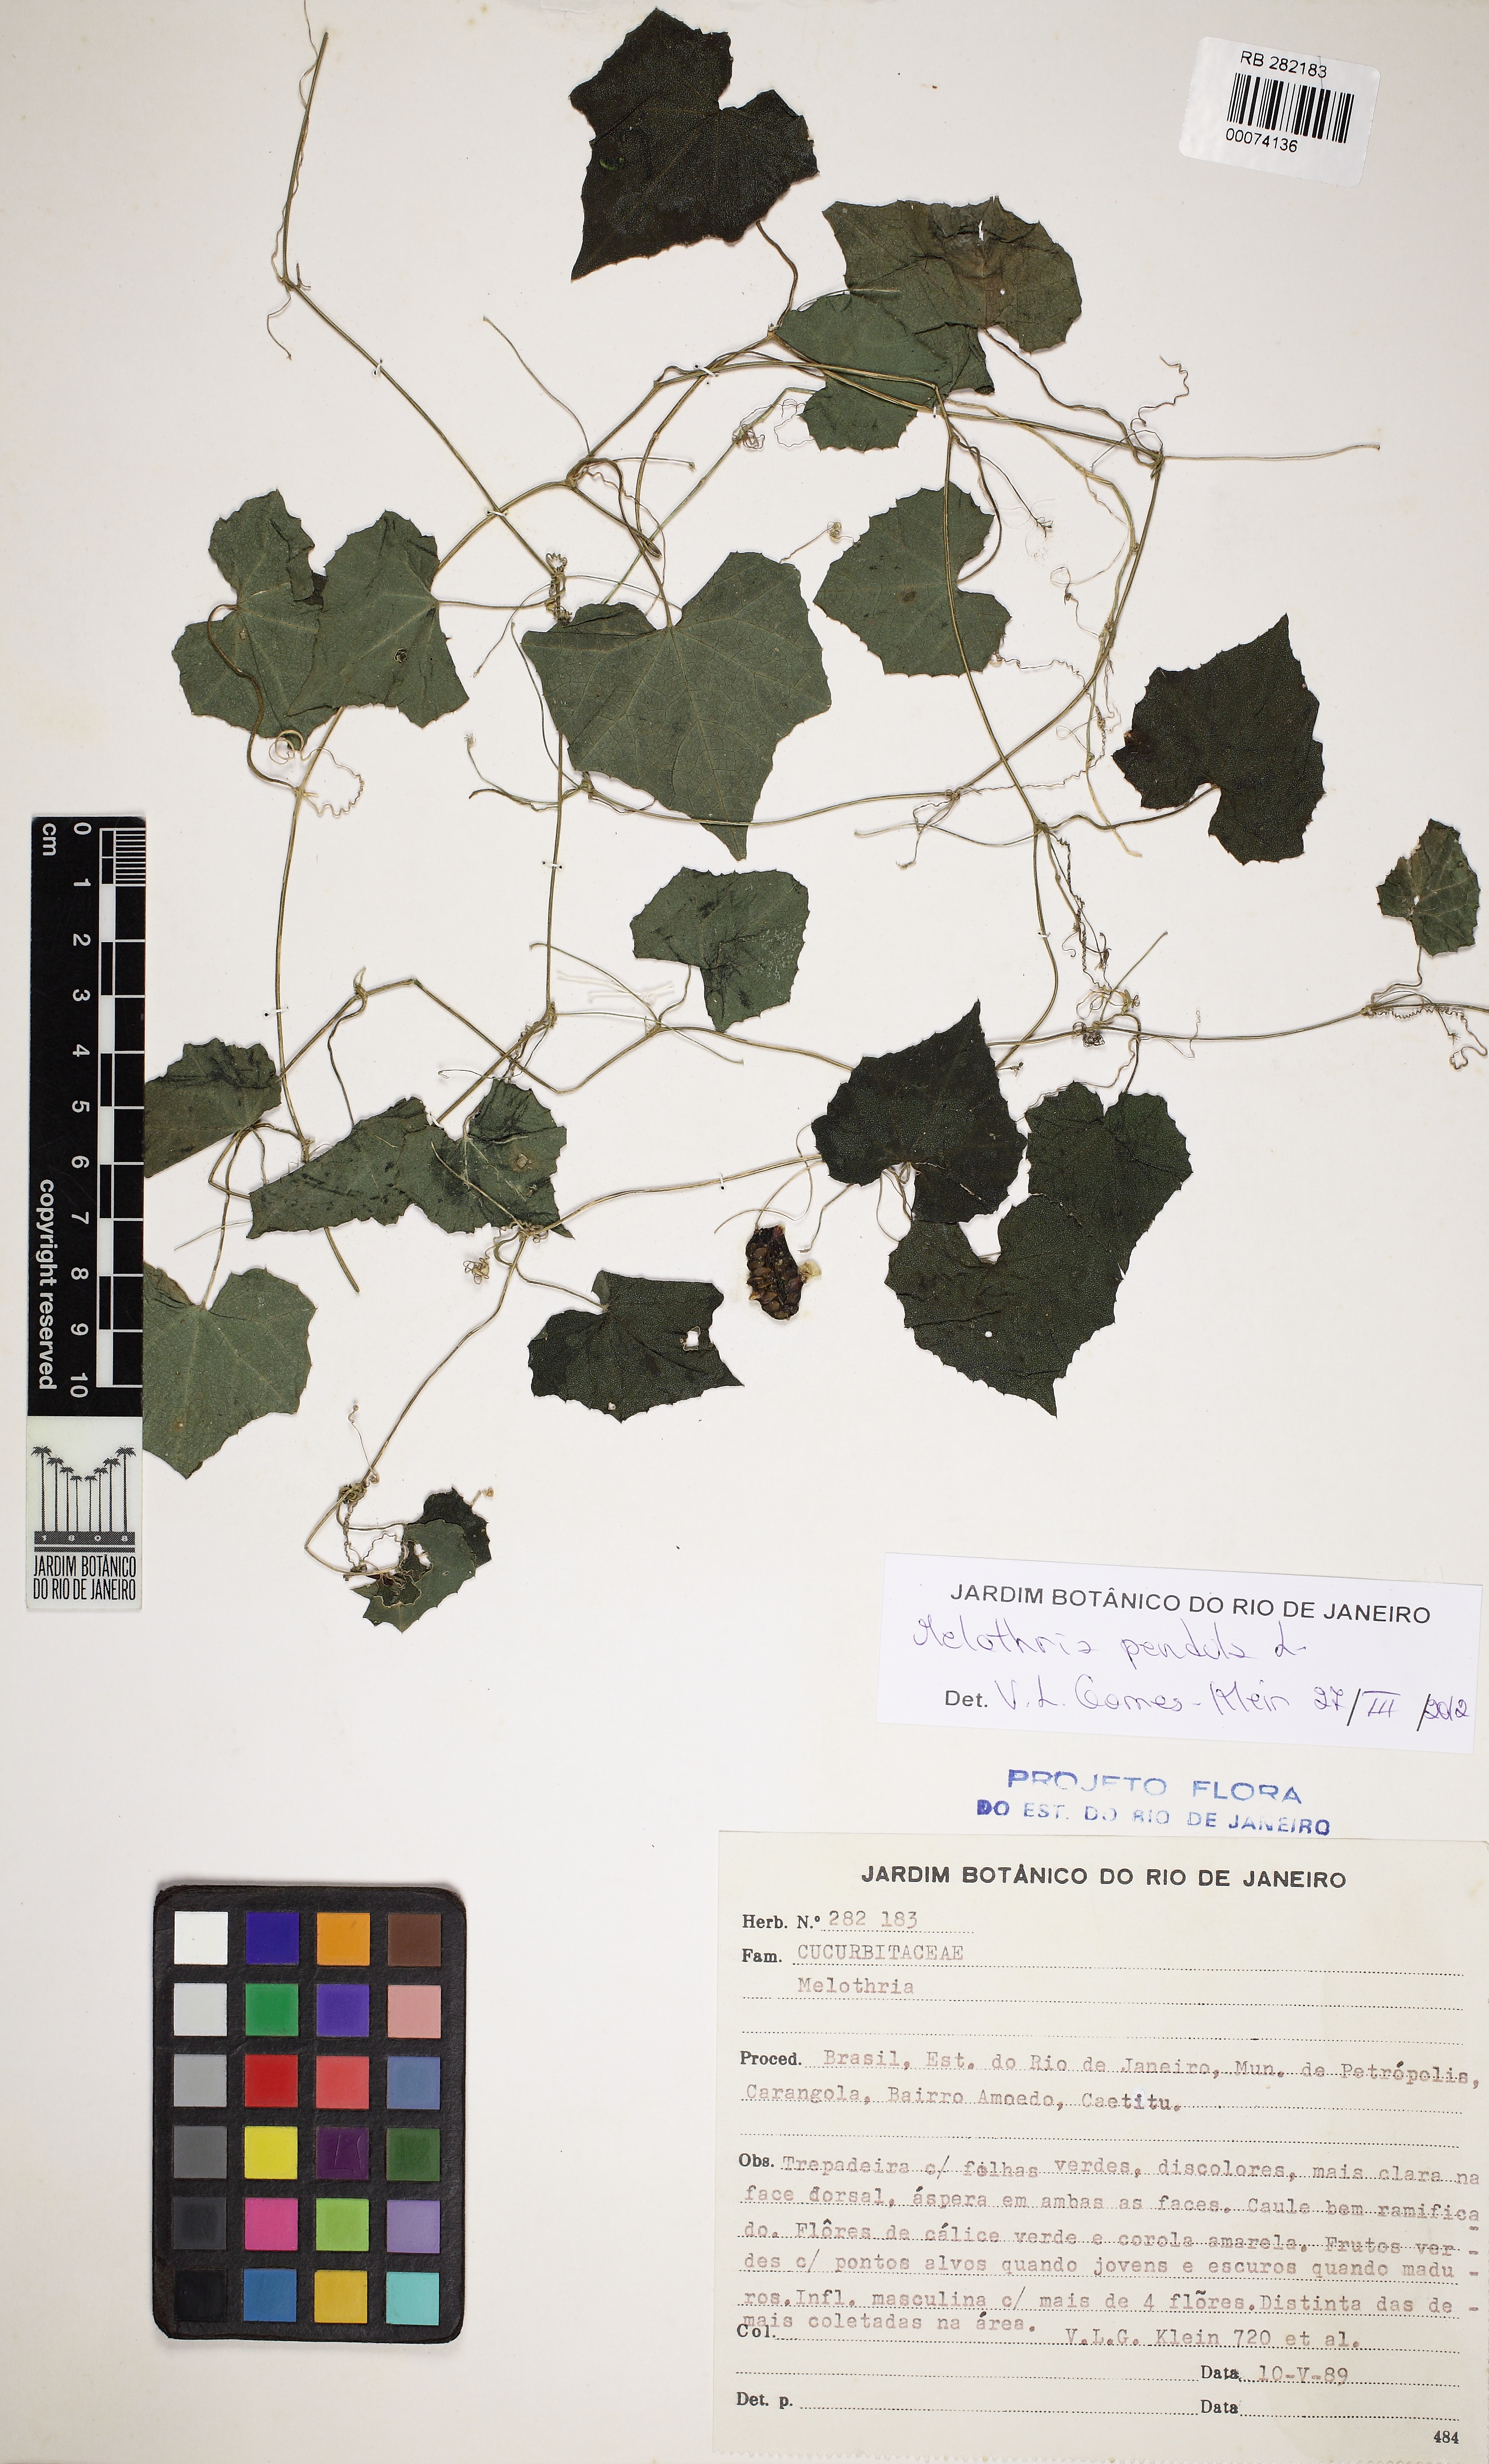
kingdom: Plantae
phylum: Tracheophyta
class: Magnoliopsida
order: Cucurbitales
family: Cucurbitaceae
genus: Melothria
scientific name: Melothria pendula
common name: Creeping-cucumber
